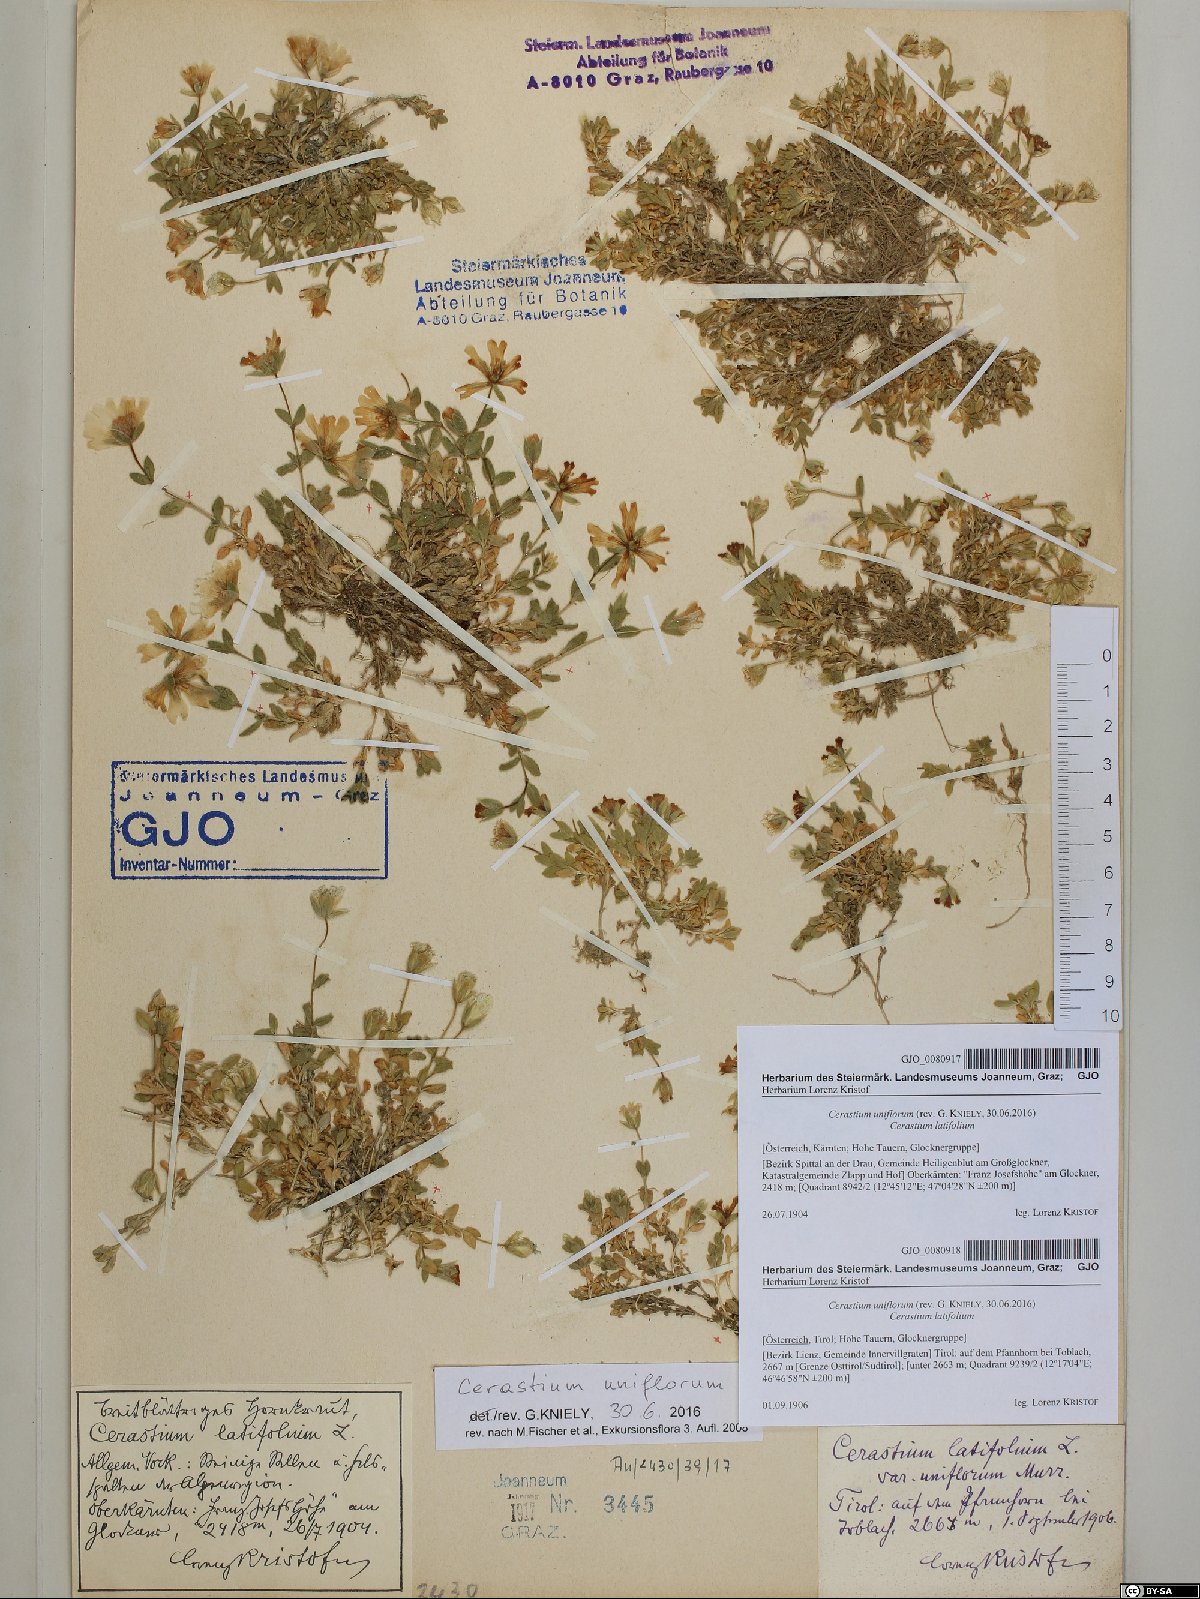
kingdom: Plantae
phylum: Tracheophyta
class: Magnoliopsida
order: Caryophyllales
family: Caryophyllaceae
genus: Cerastium
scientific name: Cerastium uniflorum
